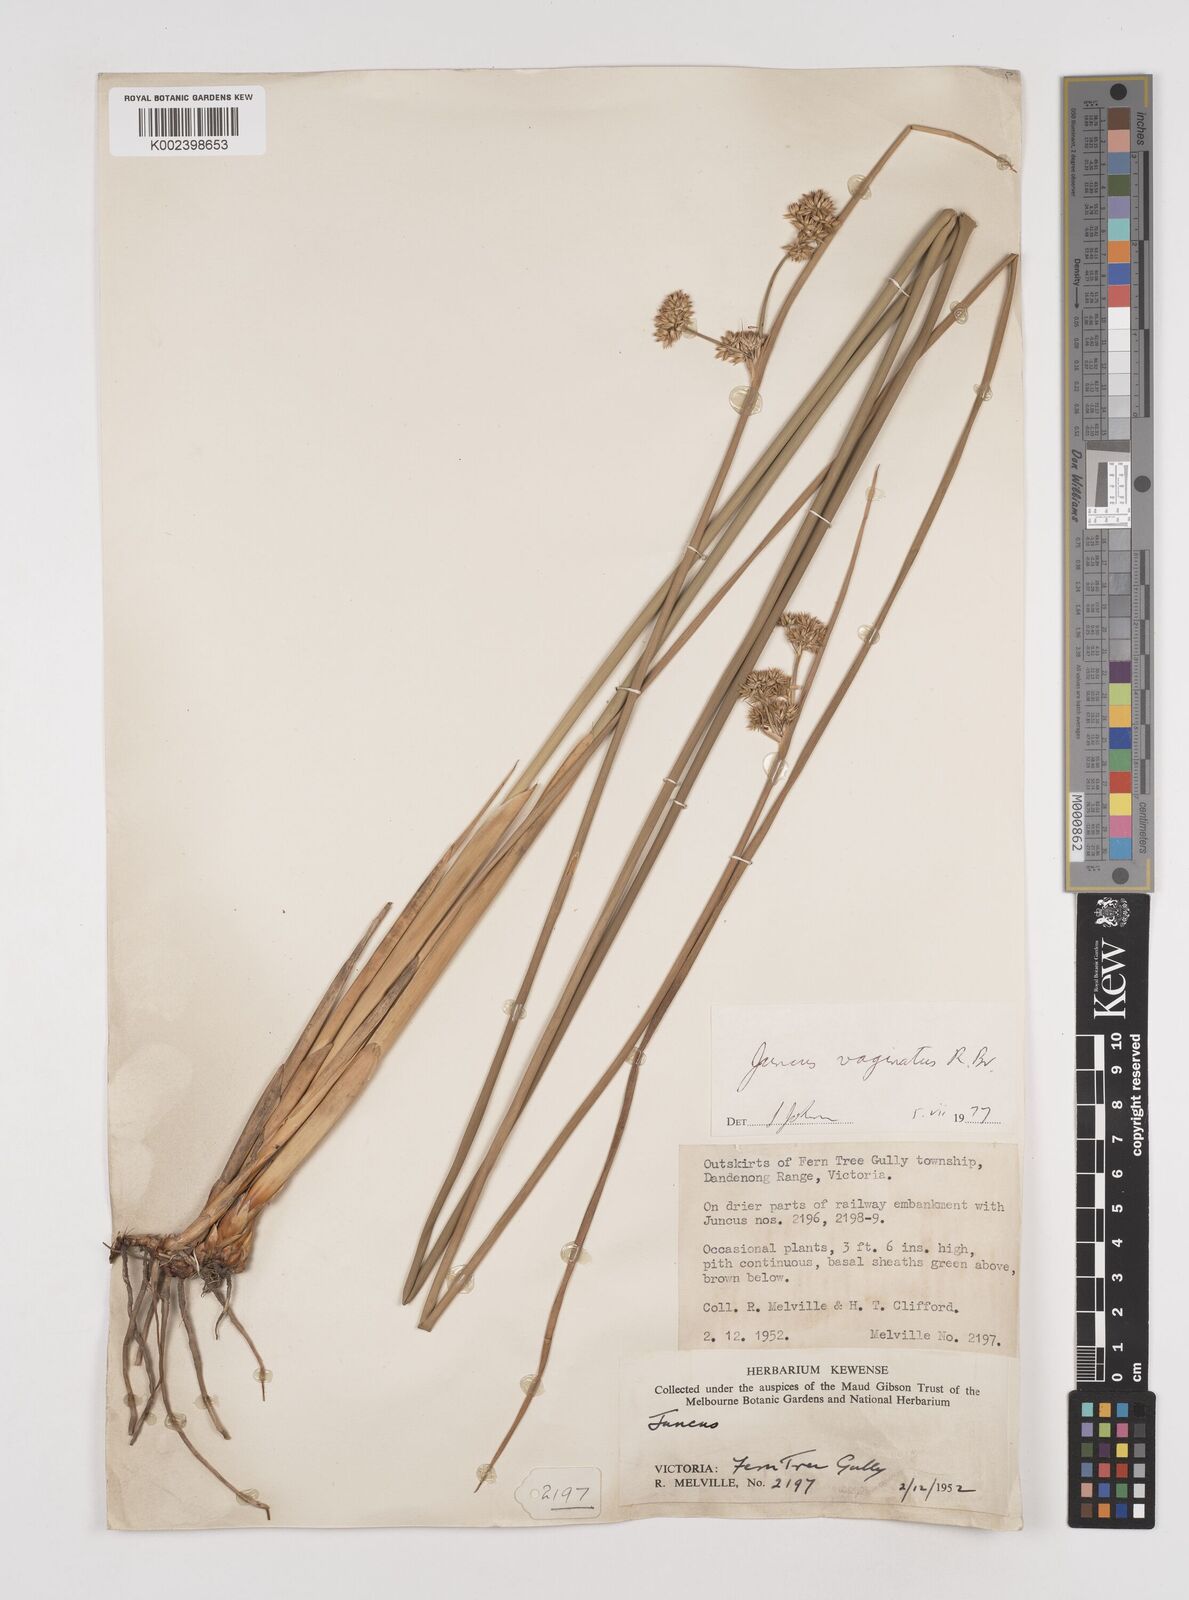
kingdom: Plantae
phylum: Tracheophyta
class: Liliopsida
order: Poales
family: Juncaceae
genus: Juncus
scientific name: Juncus vaginatus
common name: Clustered rush
